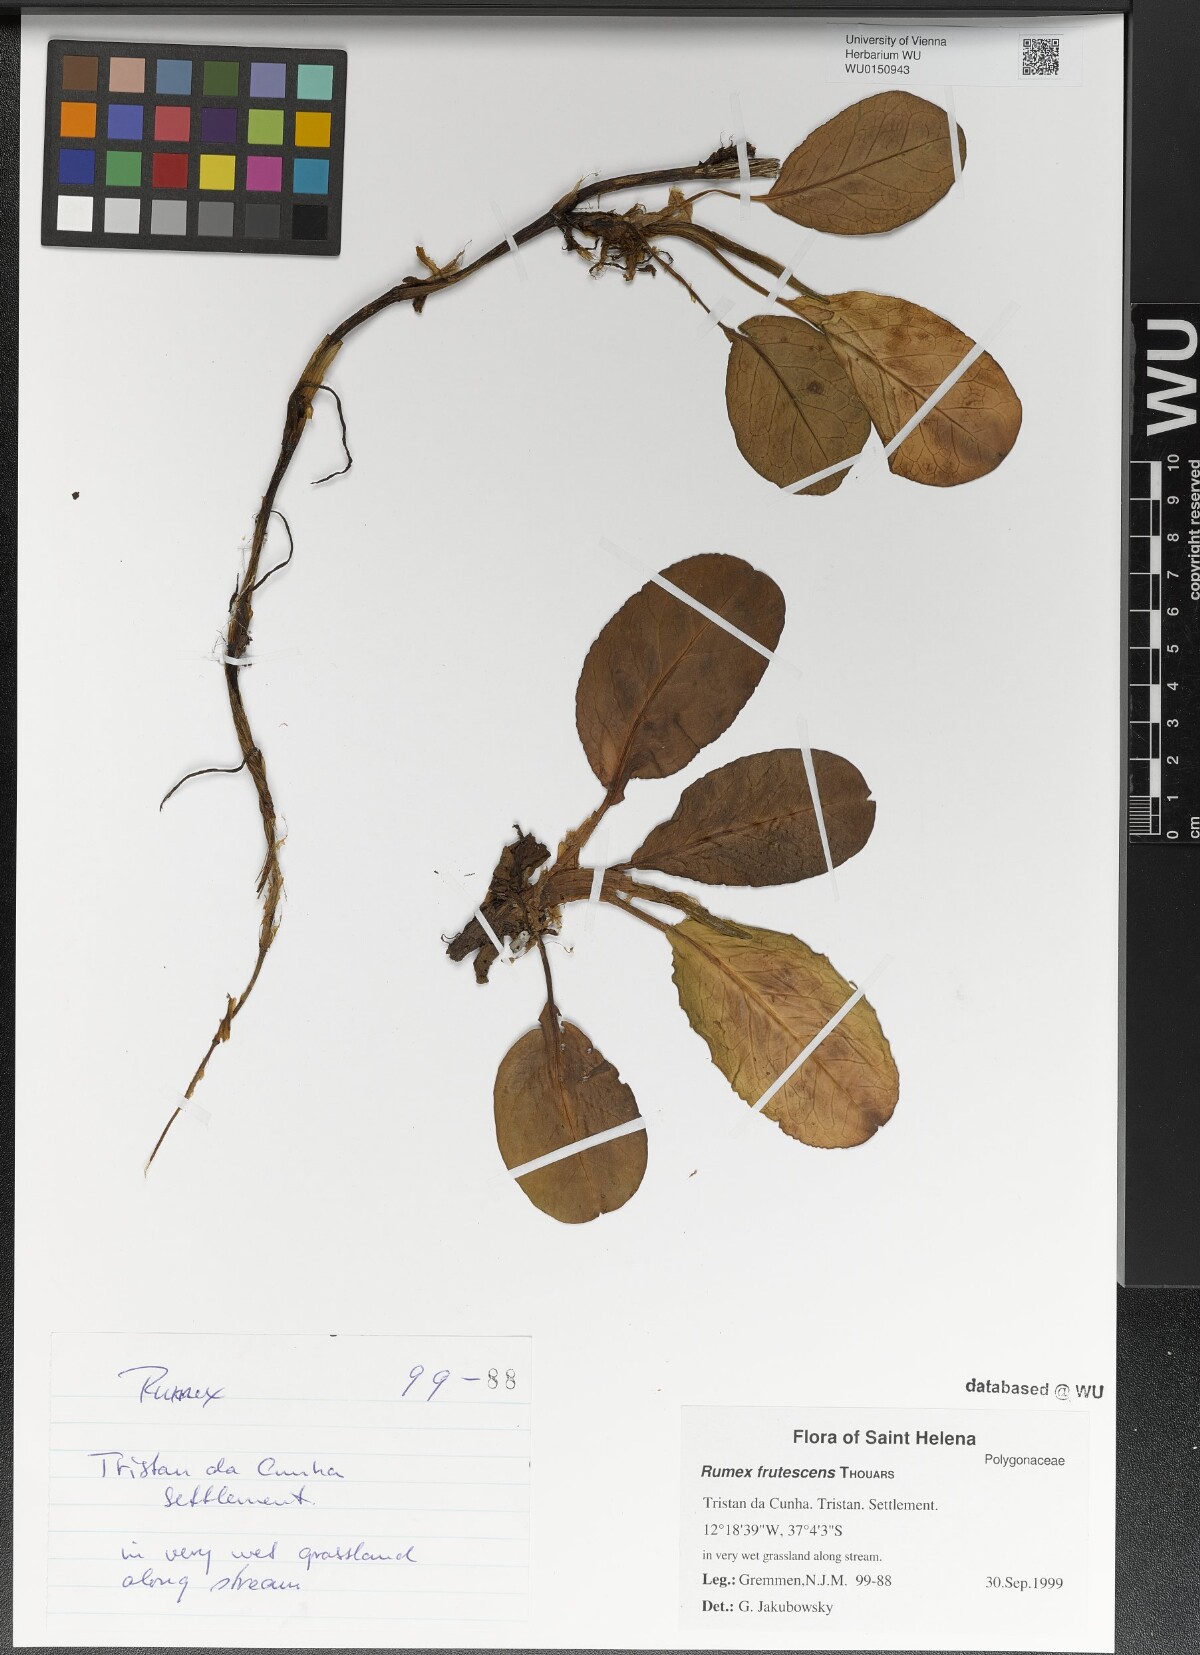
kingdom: Plantae
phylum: Tracheophyta
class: Magnoliopsida
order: Caryophyllales
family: Polygonaceae
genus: Rumex
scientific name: Rumex frutescens
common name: Argentine dock
